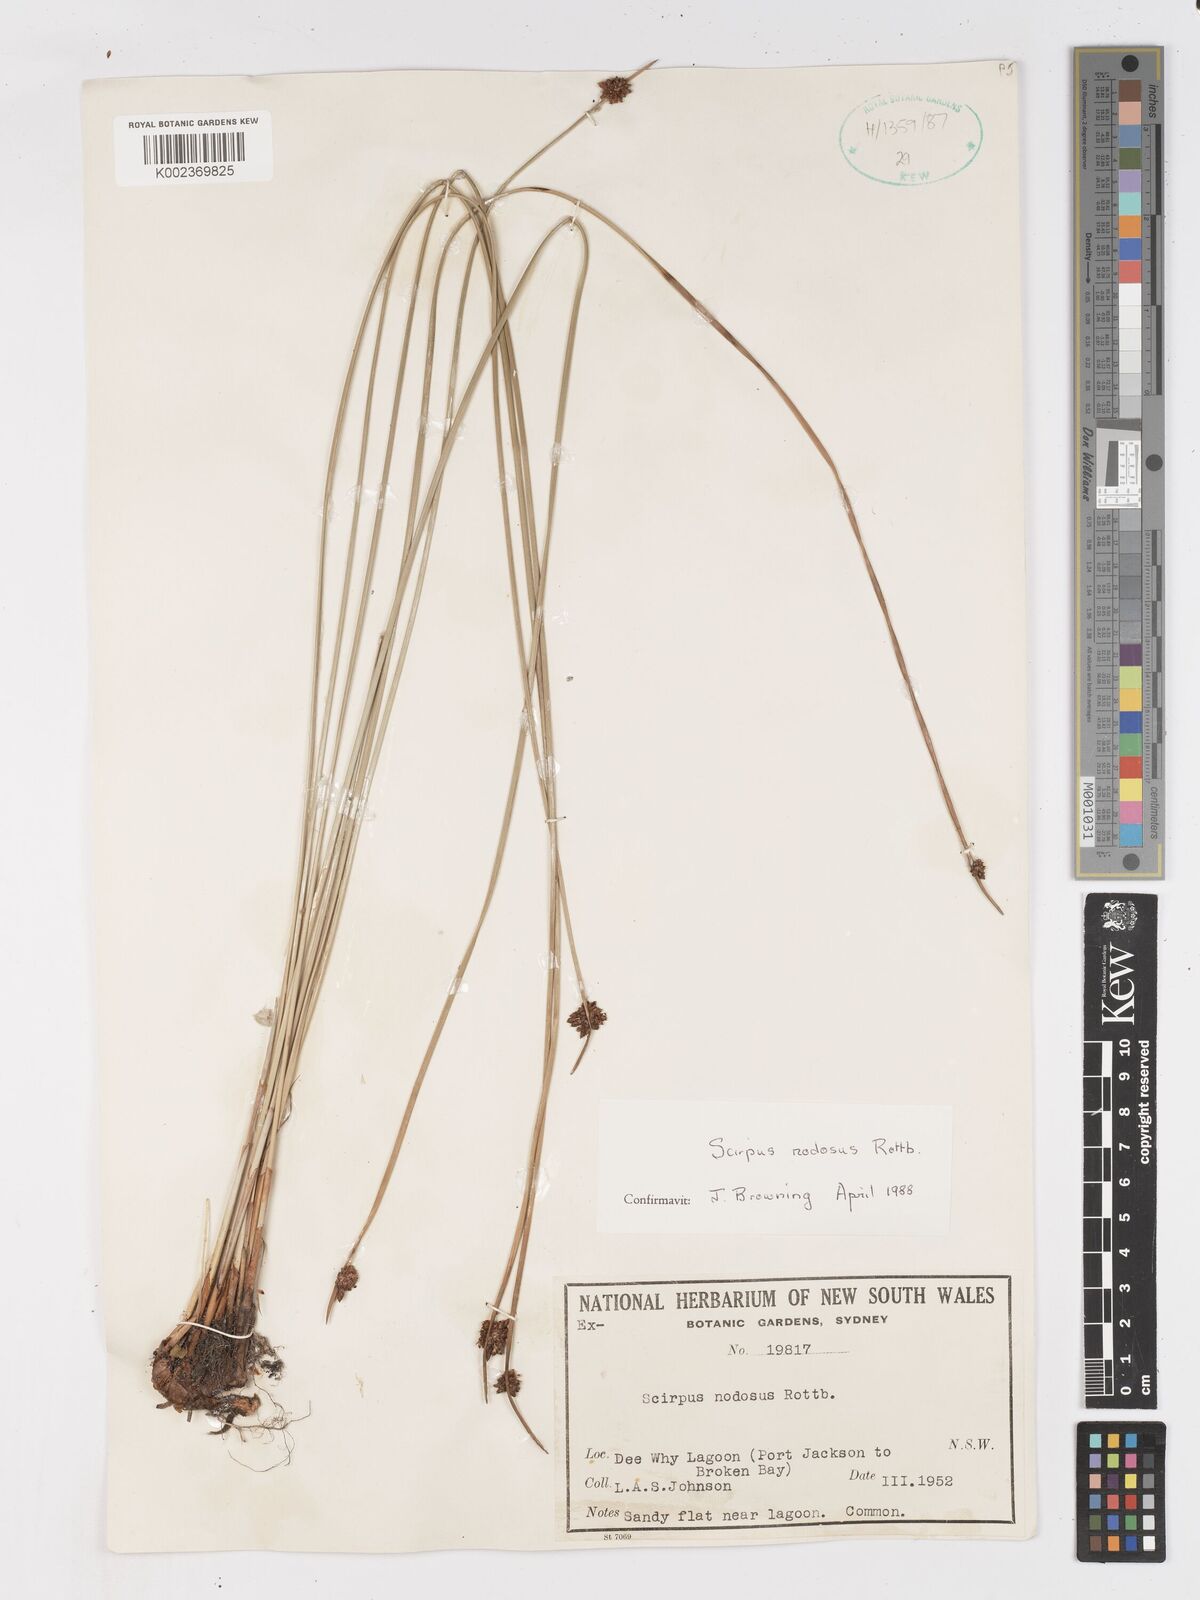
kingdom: Plantae
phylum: Tracheophyta
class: Liliopsida
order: Poales
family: Cyperaceae
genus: Ficinia
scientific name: Ficinia nodosa
